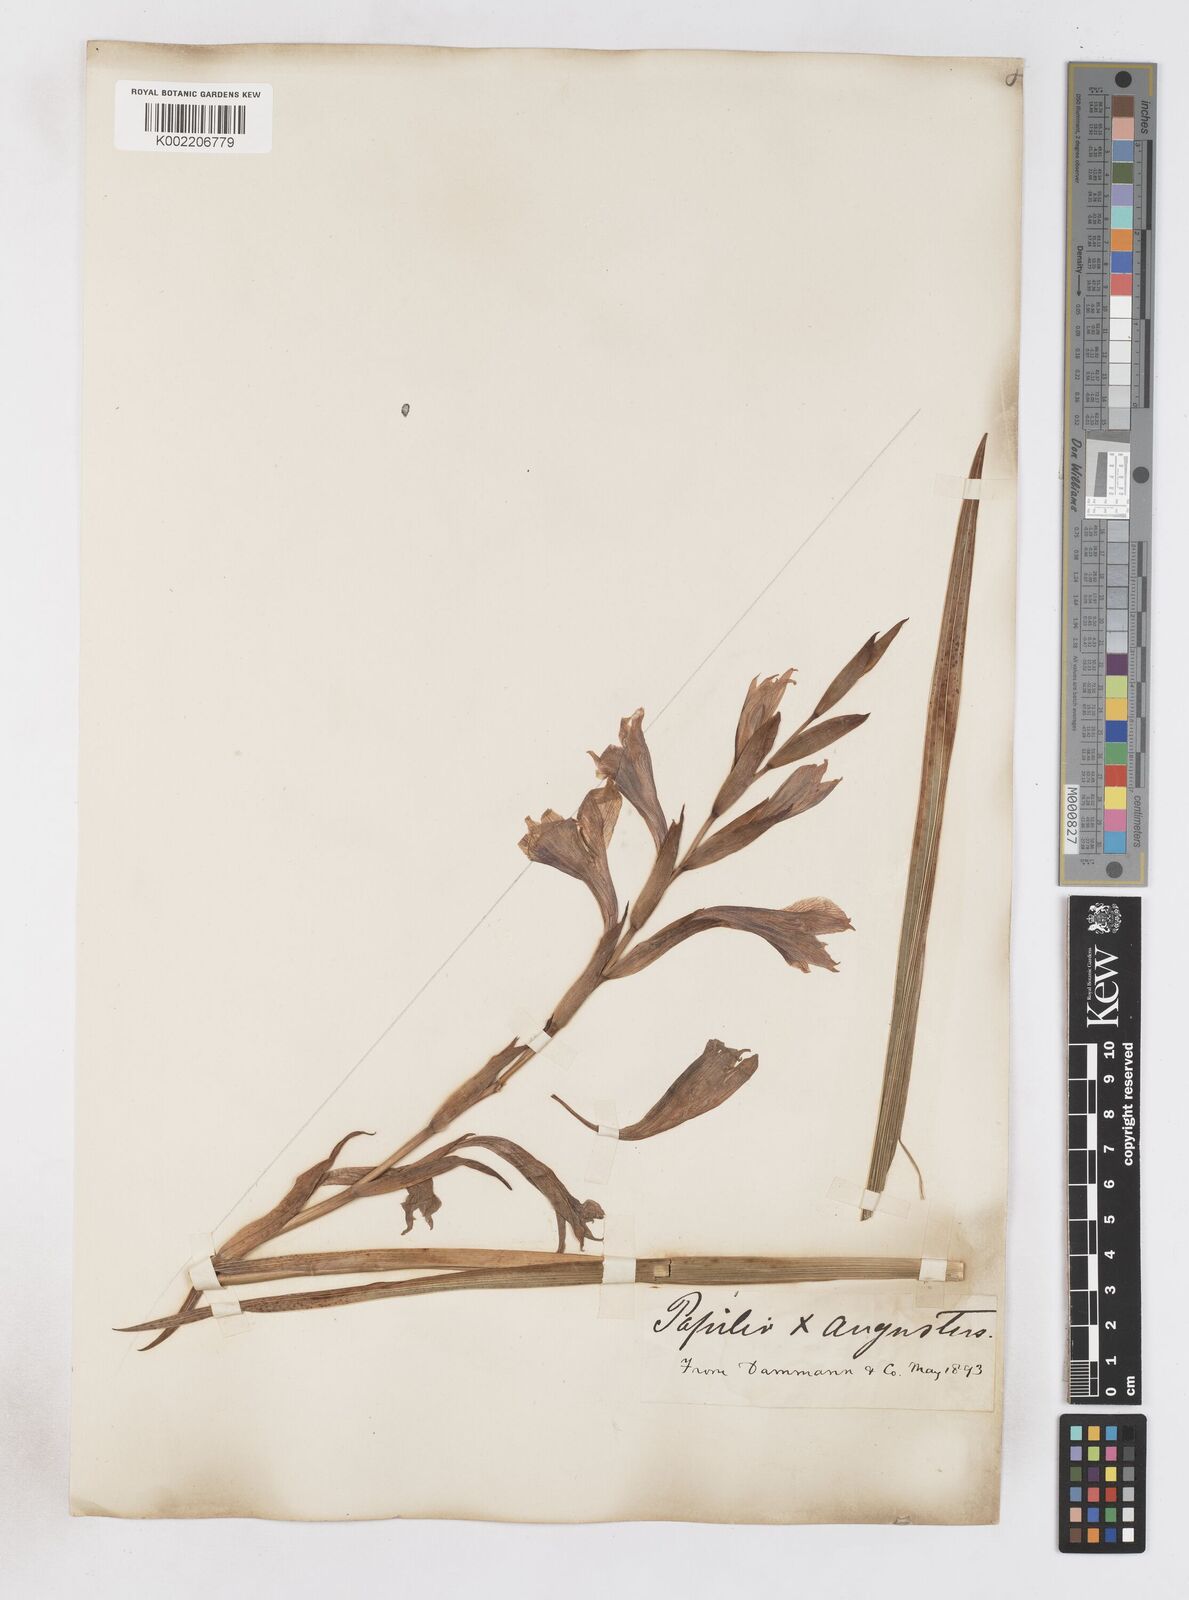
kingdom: Plantae
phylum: Tracheophyta
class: Liliopsida
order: Asparagales
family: Iridaceae
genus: Gladiolus
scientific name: Gladiolus papilio
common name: Goldblotch gladiolus
